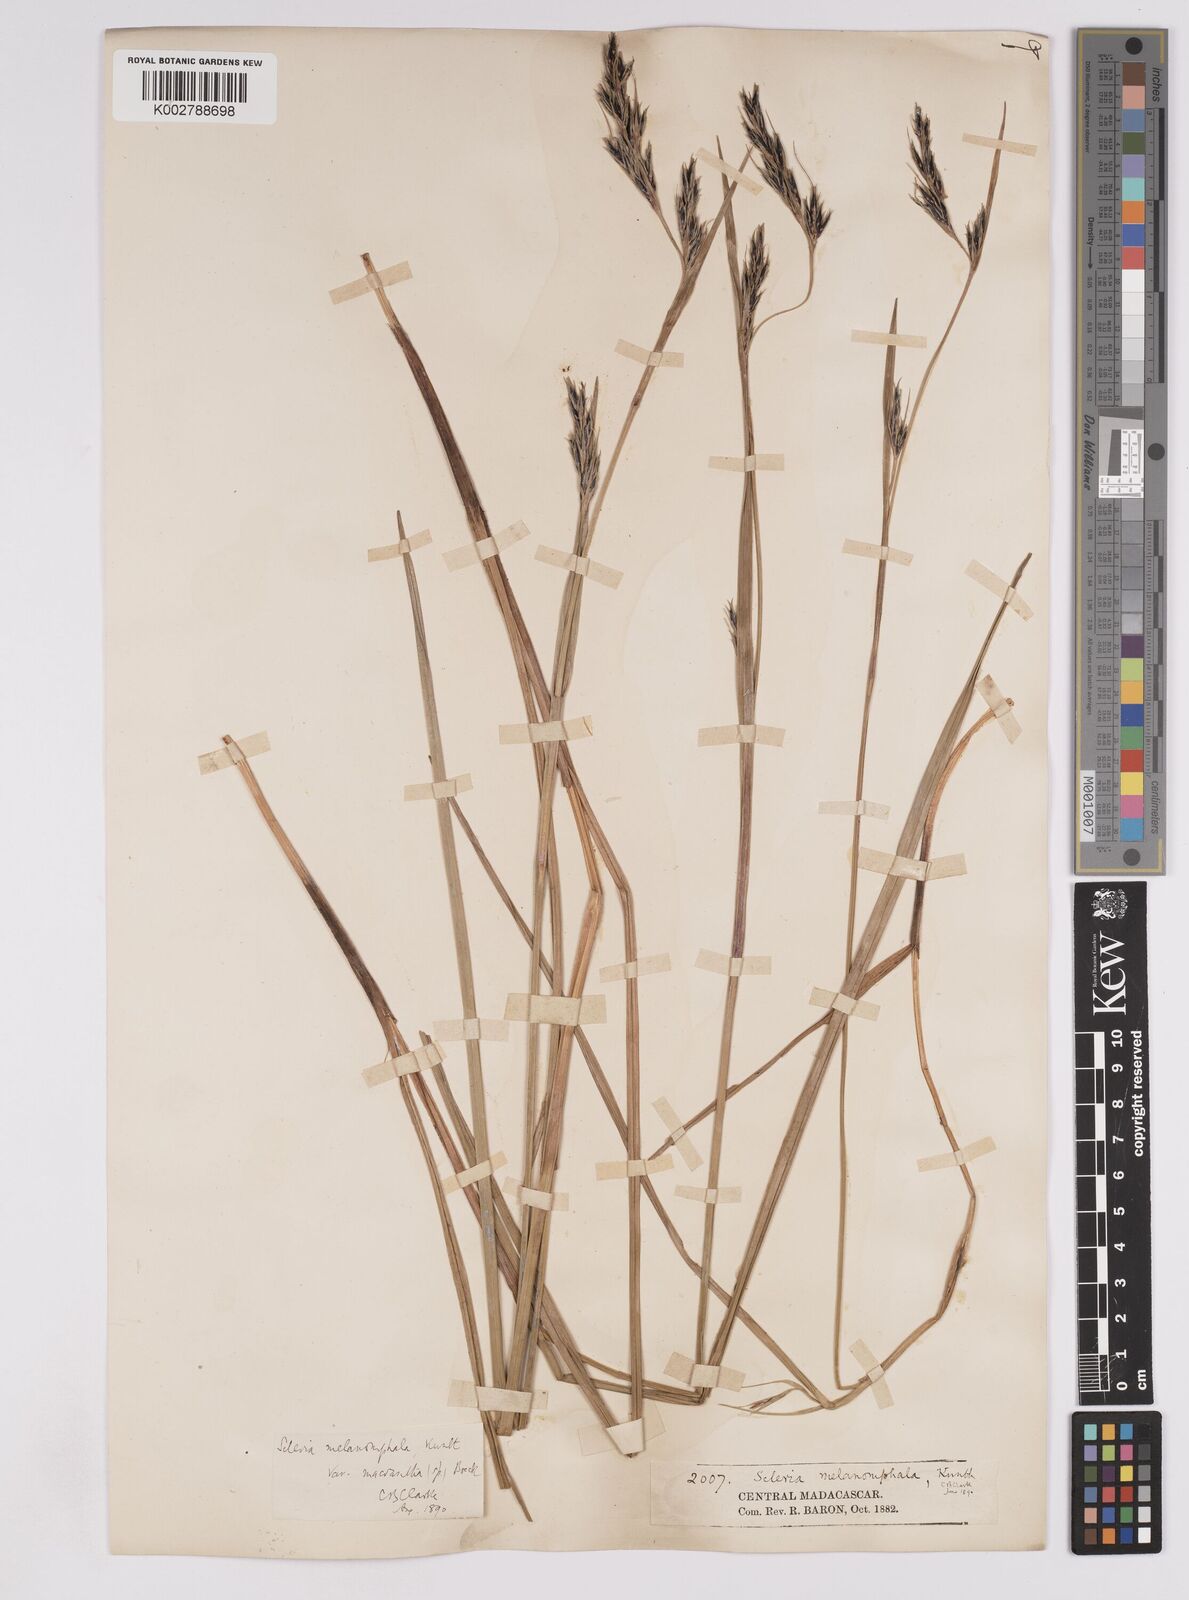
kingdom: Plantae
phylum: Tracheophyta
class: Liliopsida
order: Poales
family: Cyperaceae
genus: Scleria
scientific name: Scleria melanomphala
